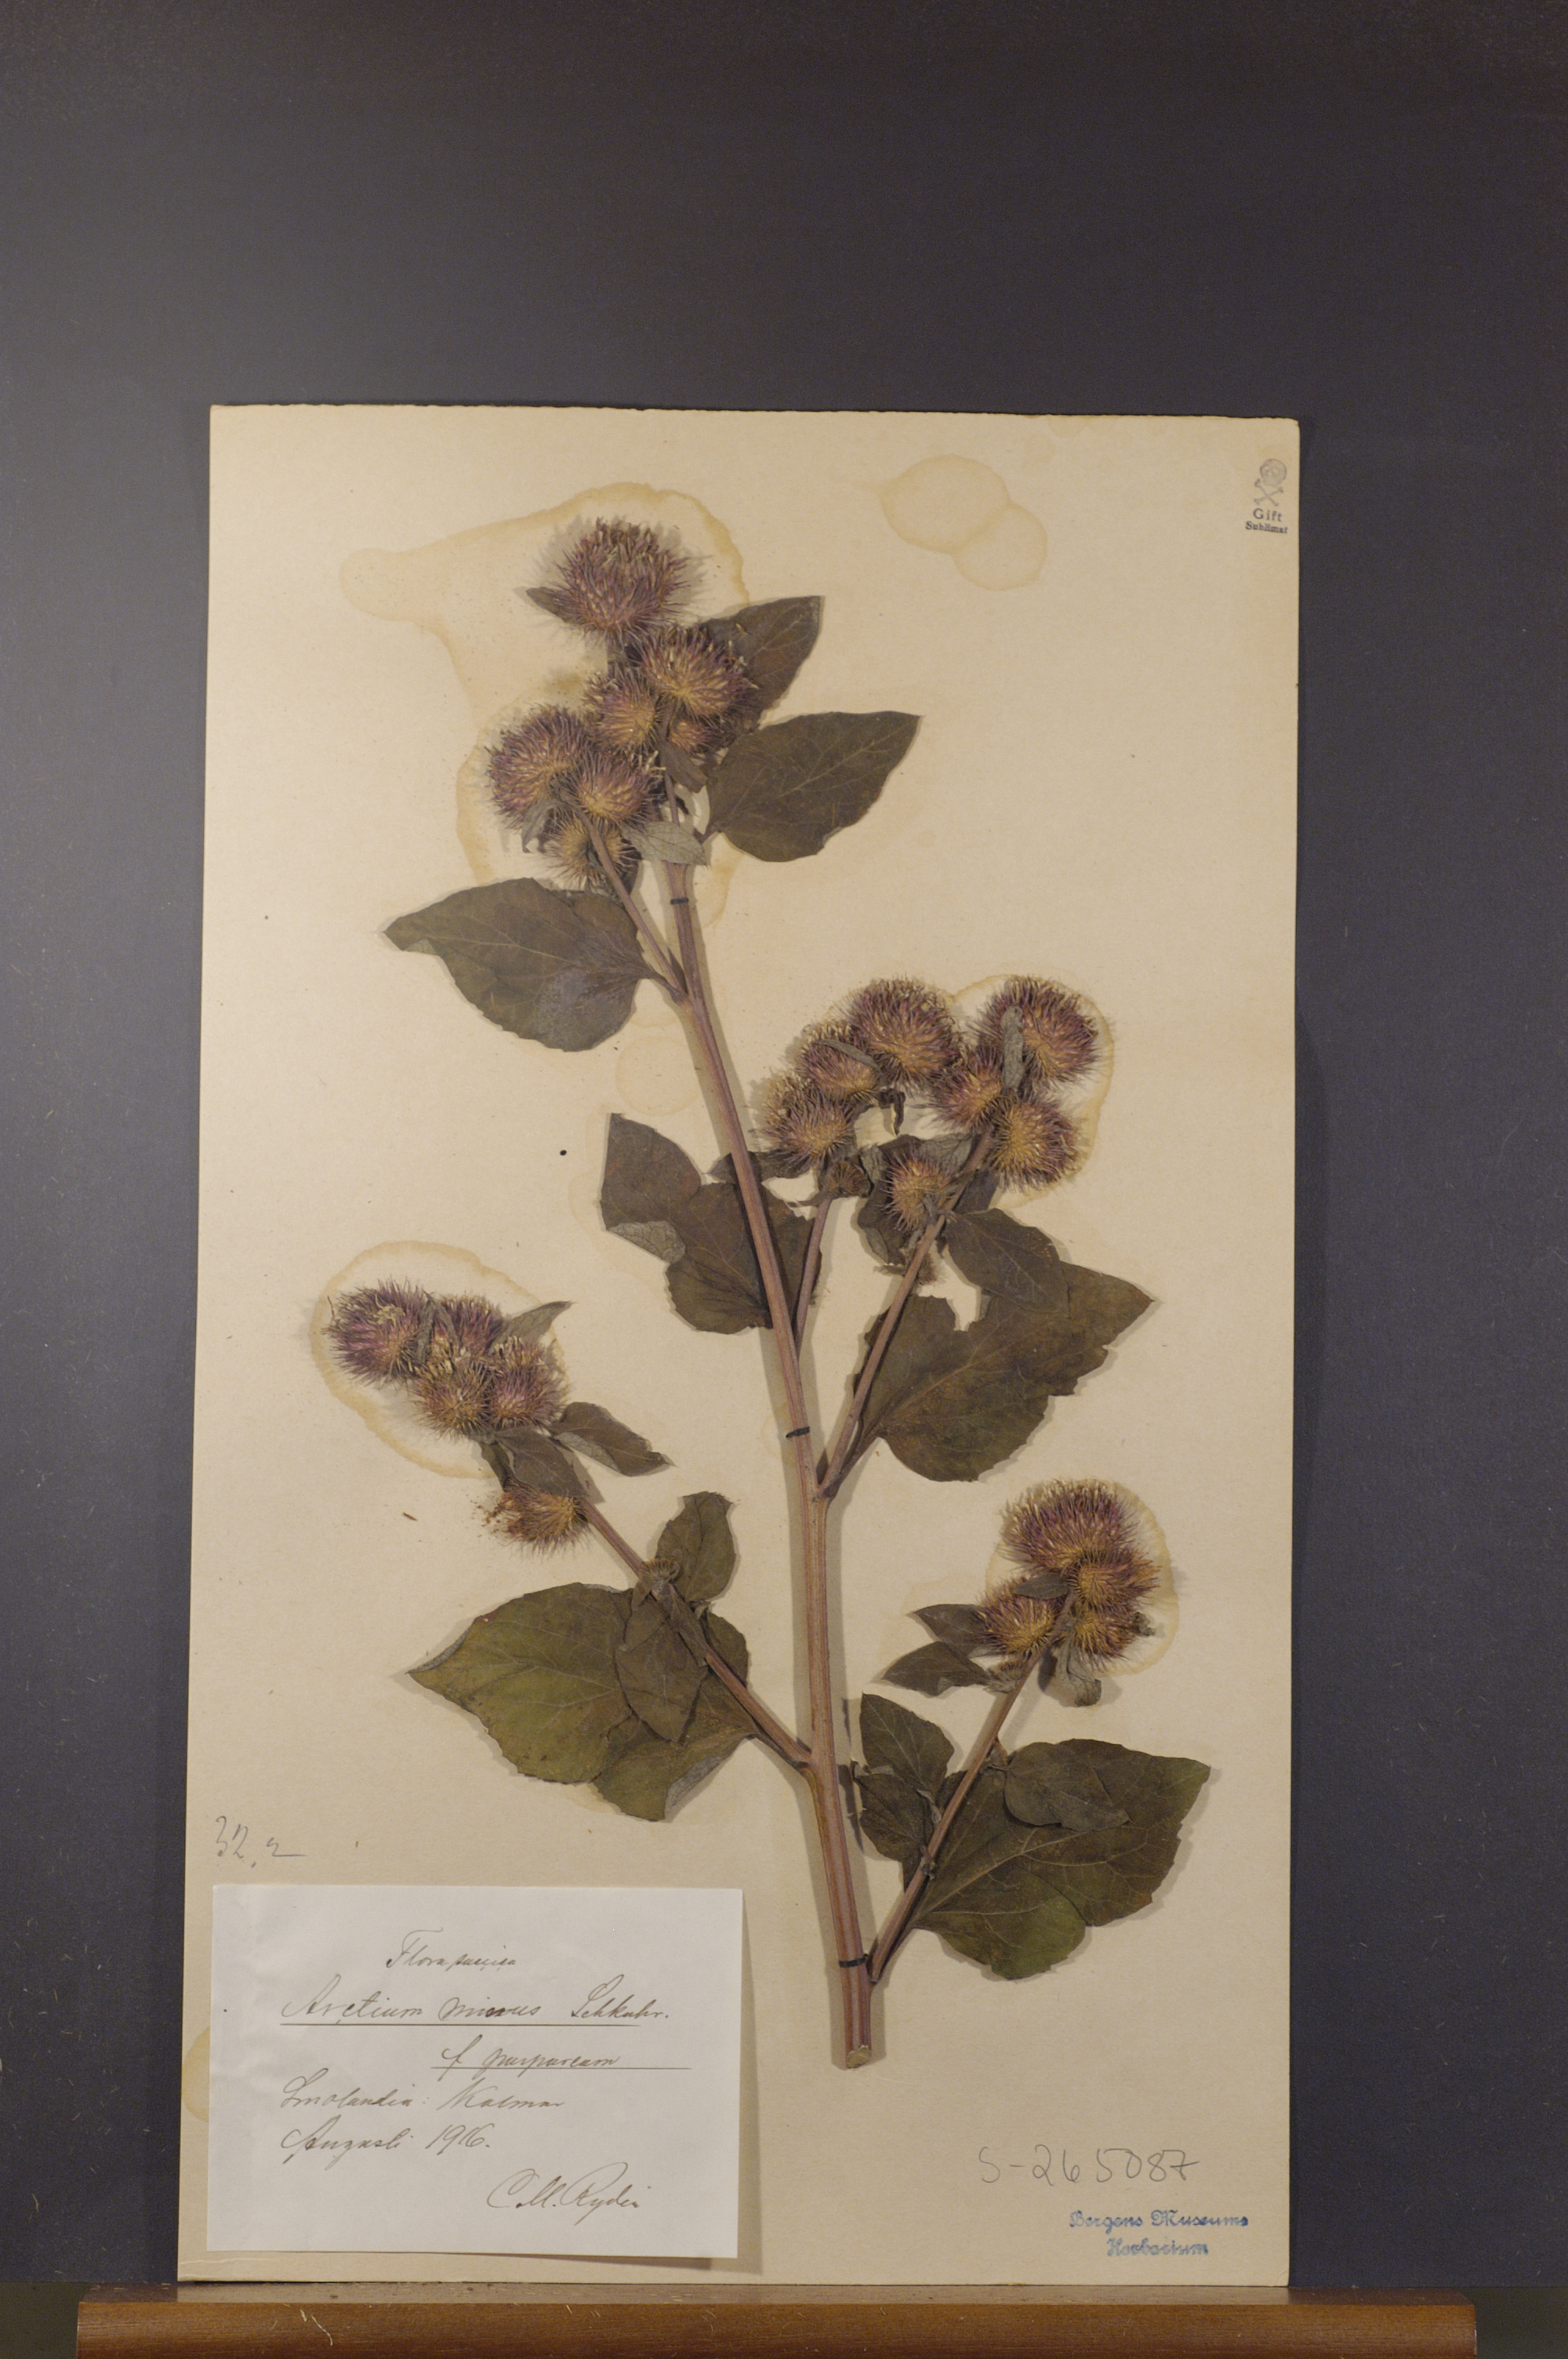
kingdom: Plantae
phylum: Tracheophyta
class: Magnoliopsida
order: Asterales
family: Asteraceae
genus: Arctium
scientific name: Arctium minus
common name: Lesser burdock
